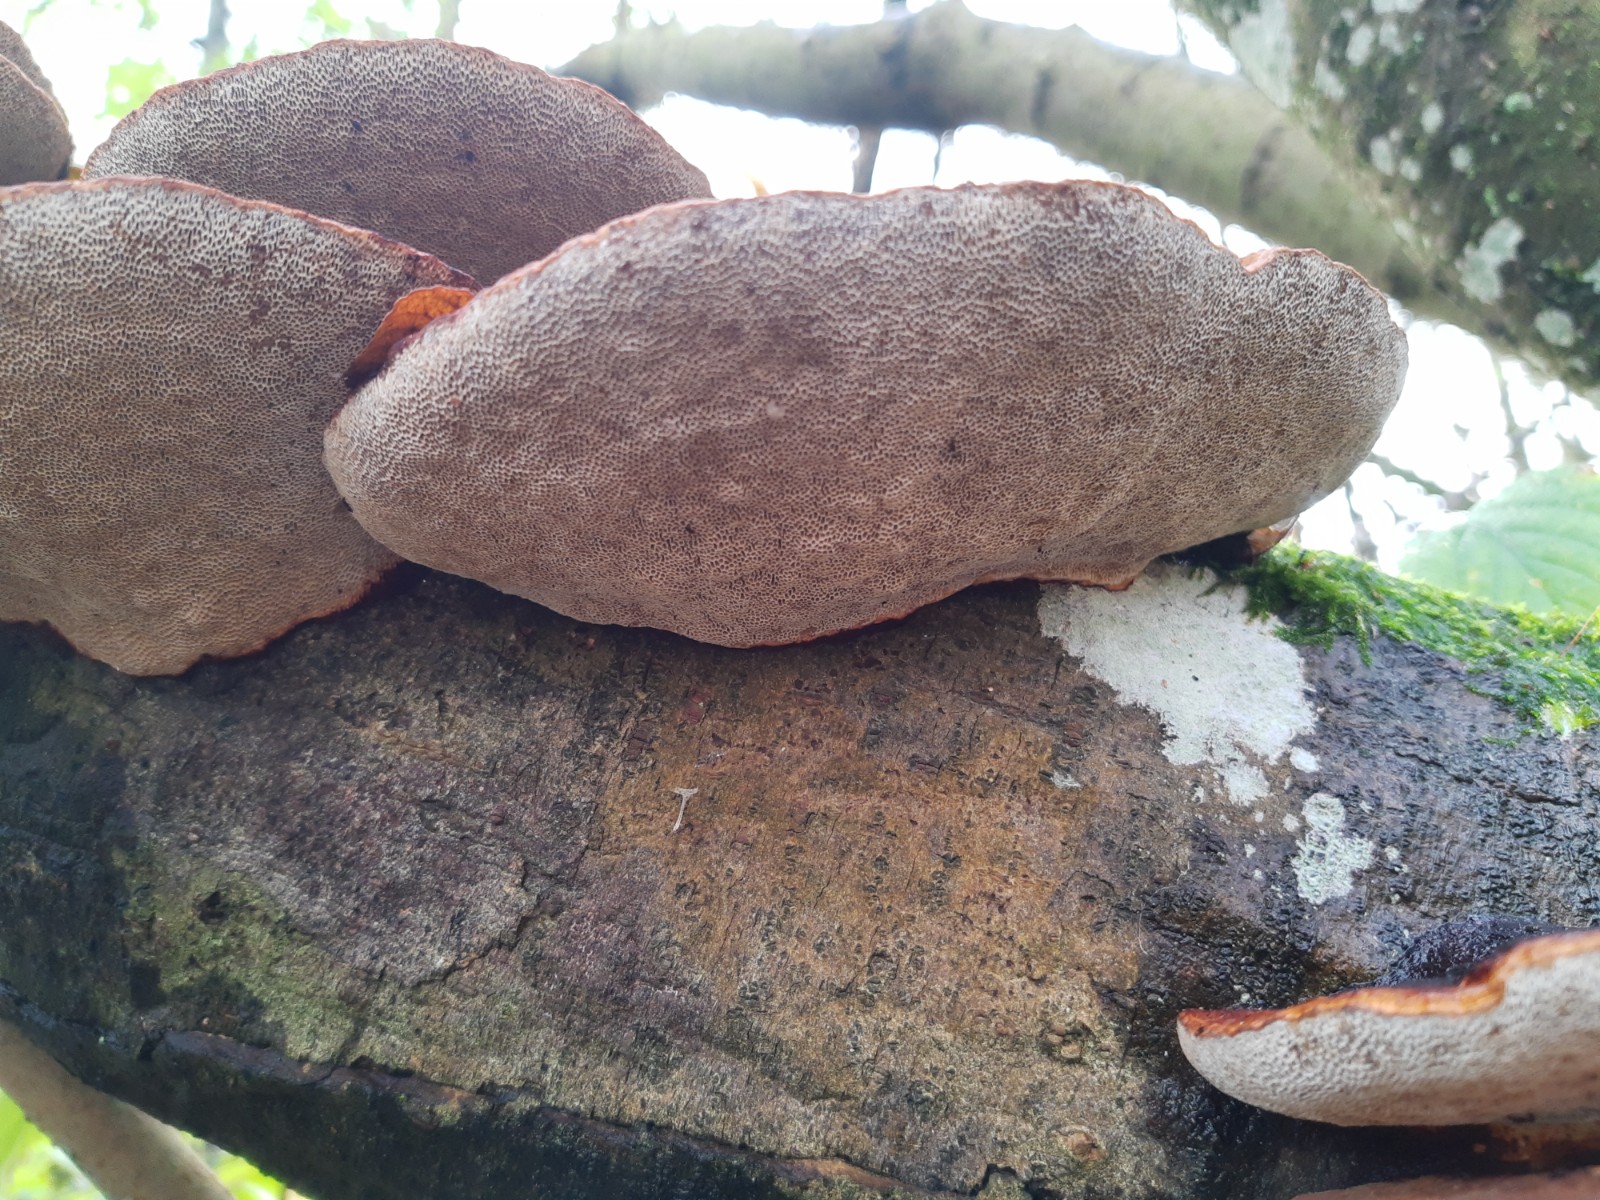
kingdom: Fungi
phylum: Basidiomycota
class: Agaricomycetes
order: Polyporales
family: Polyporaceae
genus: Daedaleopsis
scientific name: Daedaleopsis confragosa
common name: rødmende læderporesvamp
